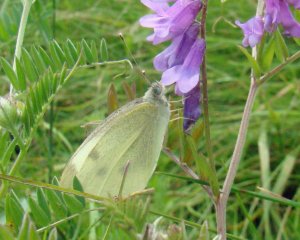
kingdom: Animalia
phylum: Arthropoda
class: Insecta
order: Lepidoptera
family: Pieridae
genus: Pieris
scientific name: Pieris rapae
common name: Cabbage White
